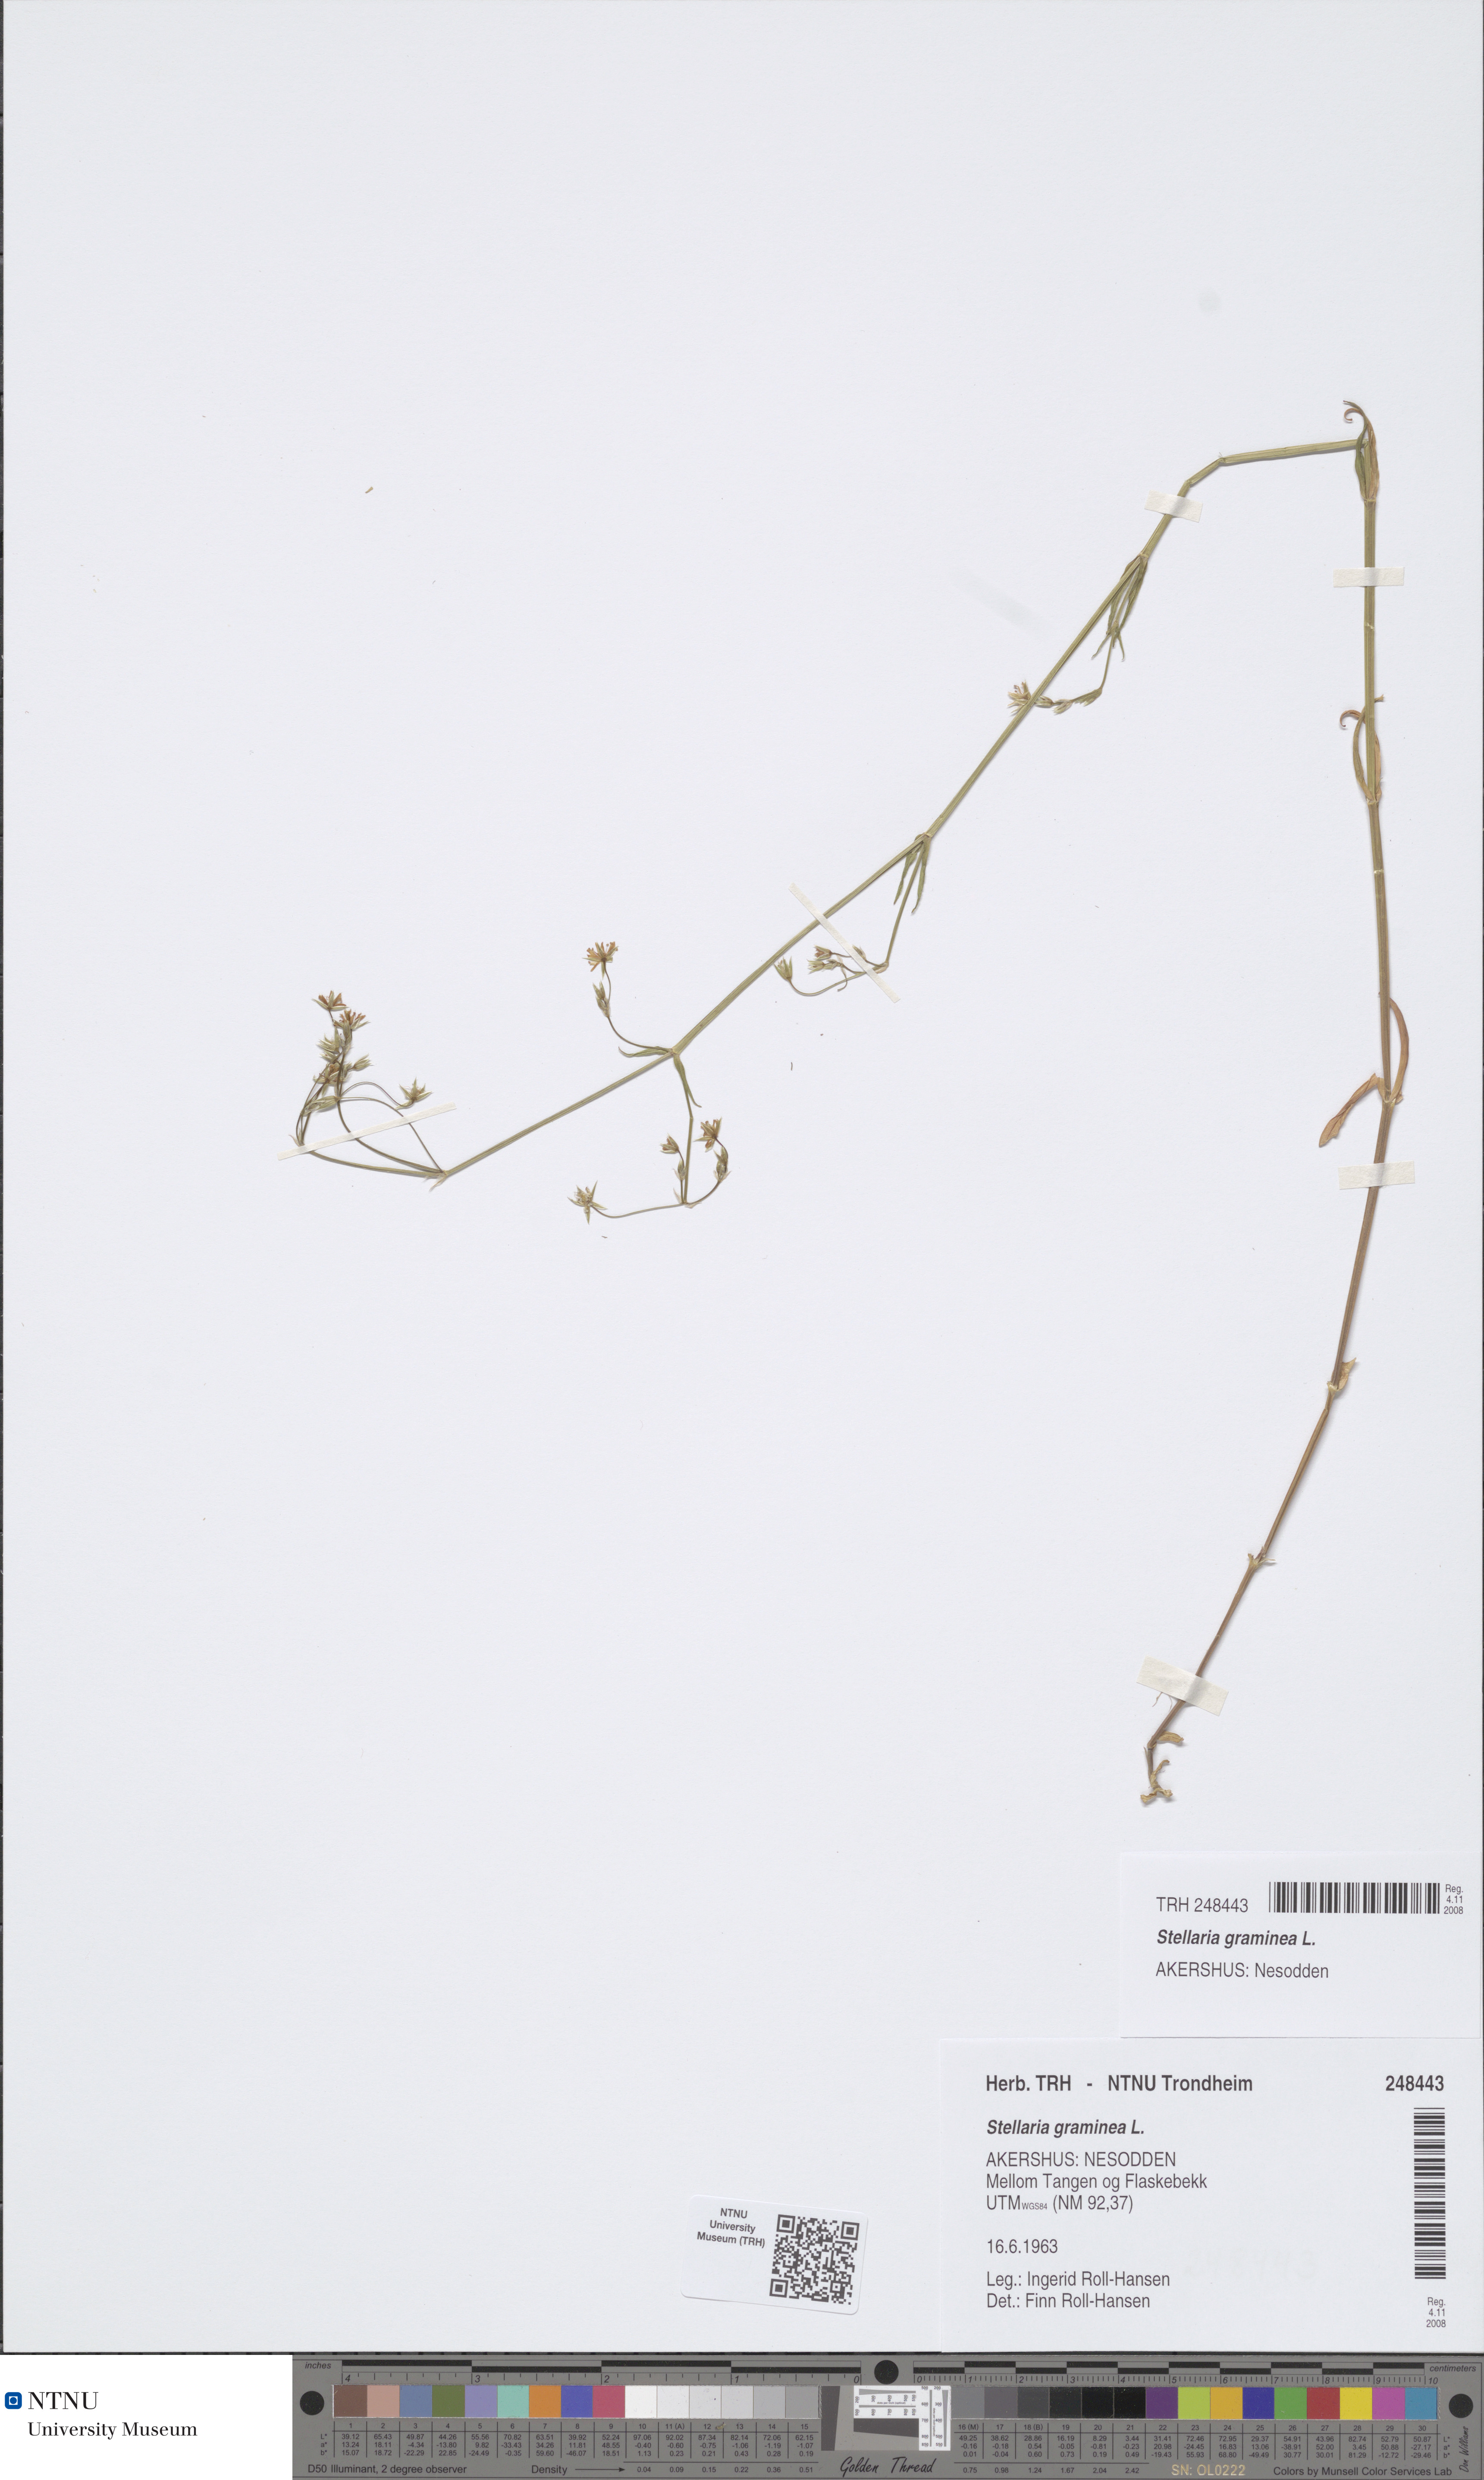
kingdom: Plantae
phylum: Tracheophyta
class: Magnoliopsida
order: Caryophyllales
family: Caryophyllaceae
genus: Stellaria
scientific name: Stellaria graminea
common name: Grass-like starwort
